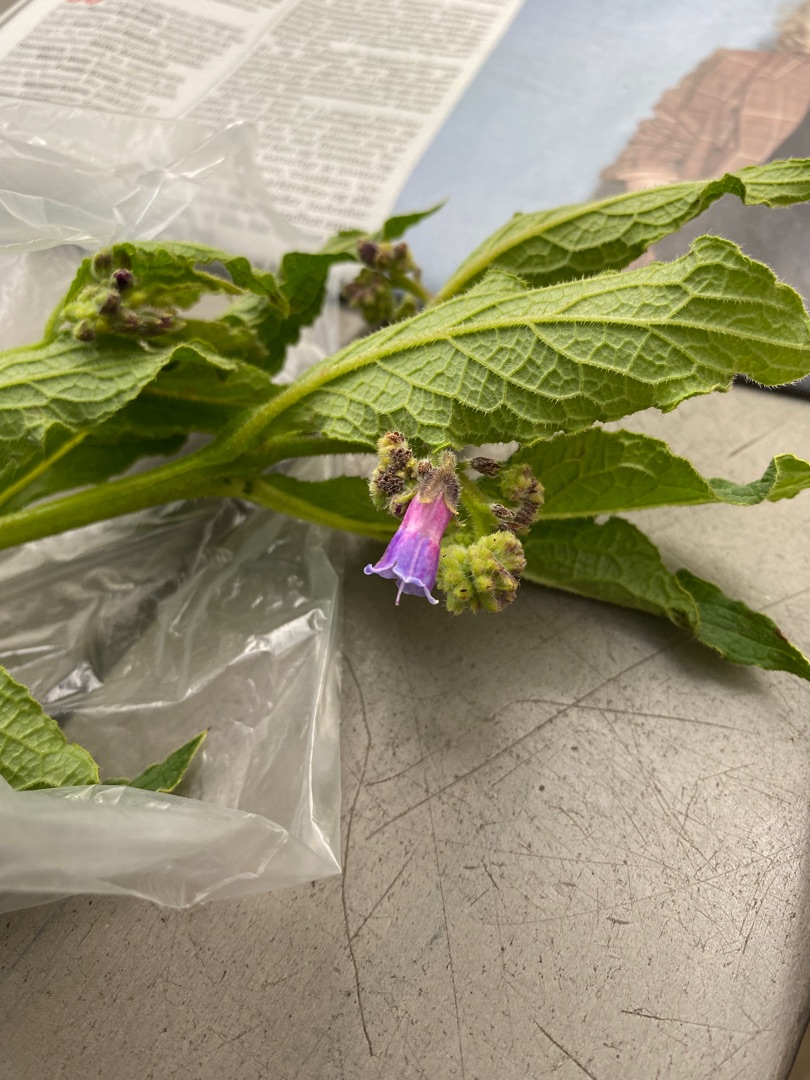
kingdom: Plantae
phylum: Tracheophyta
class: Magnoliopsida
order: Boraginales
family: Boraginaceae
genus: Symphytum
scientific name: Symphytum uplandicum
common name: Foder-kulsukker
